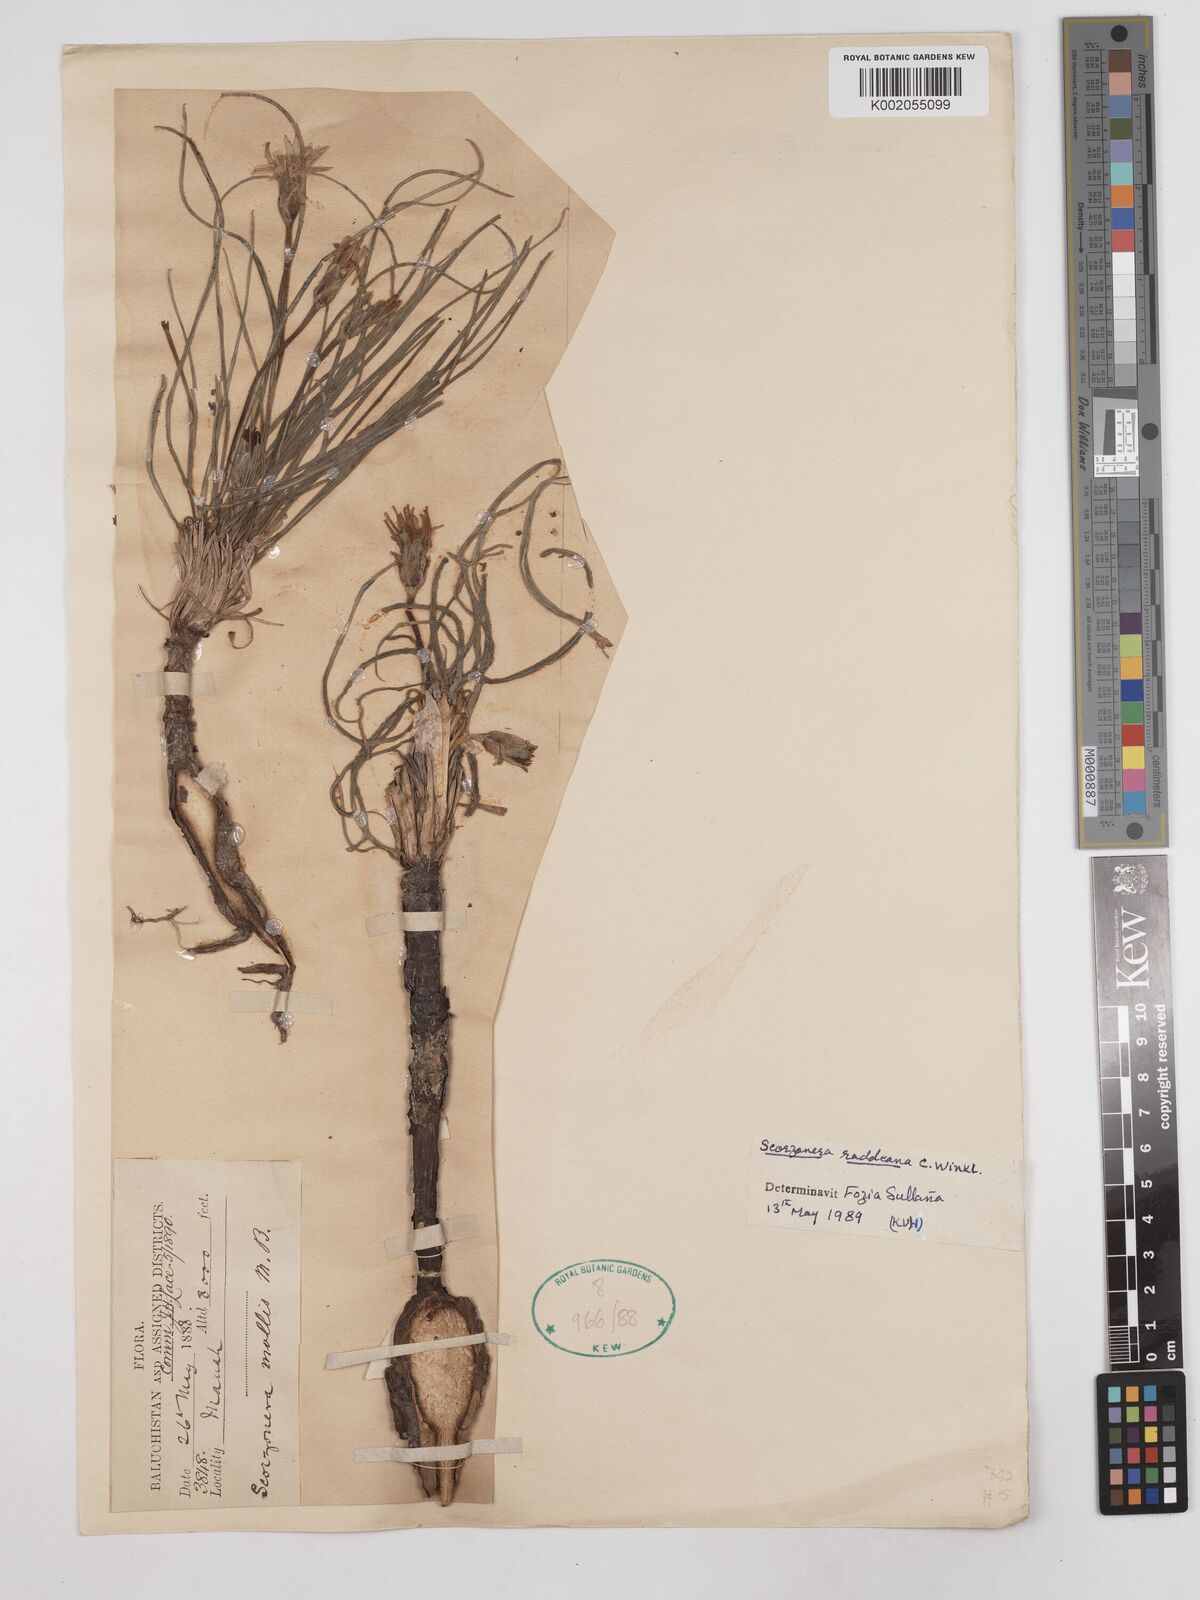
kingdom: Plantae
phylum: Tracheophyta
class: Magnoliopsida
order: Asterales
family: Asteraceae
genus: Candollea
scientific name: Candollea raddeana
